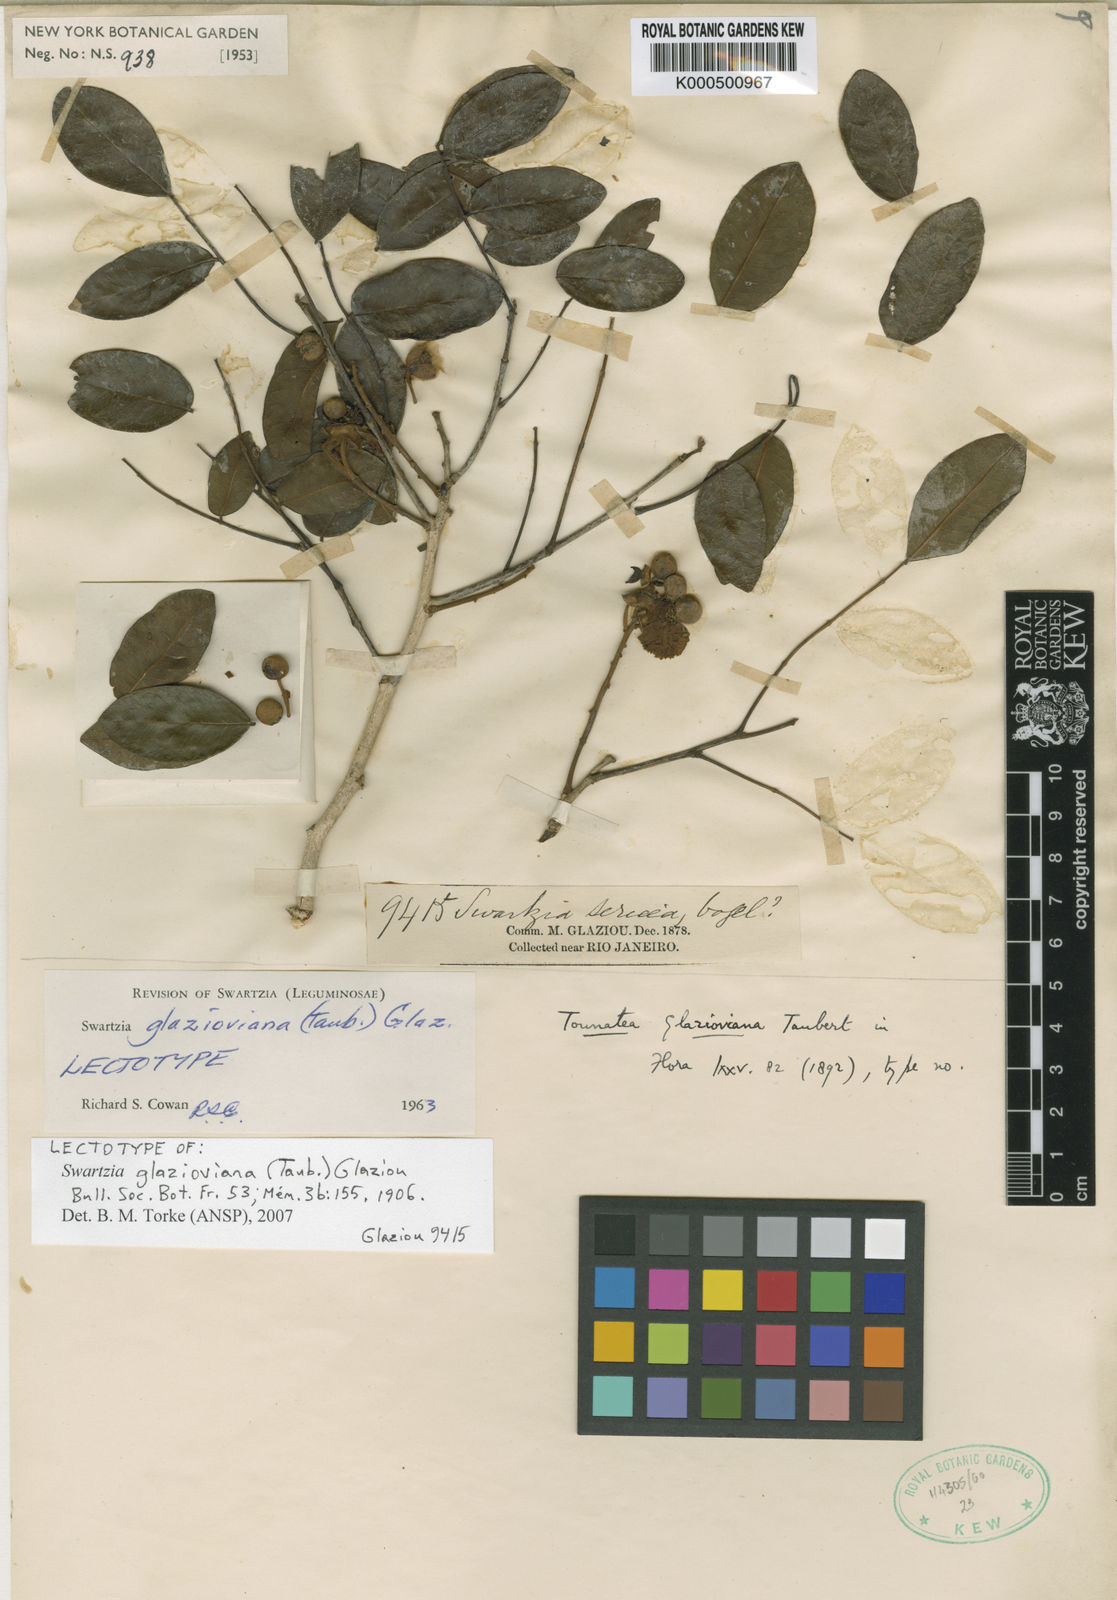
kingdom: Plantae
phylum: Tracheophyta
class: Magnoliopsida
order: Fabales
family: Fabaceae
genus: Swartzia
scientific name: Swartzia glazioviana
